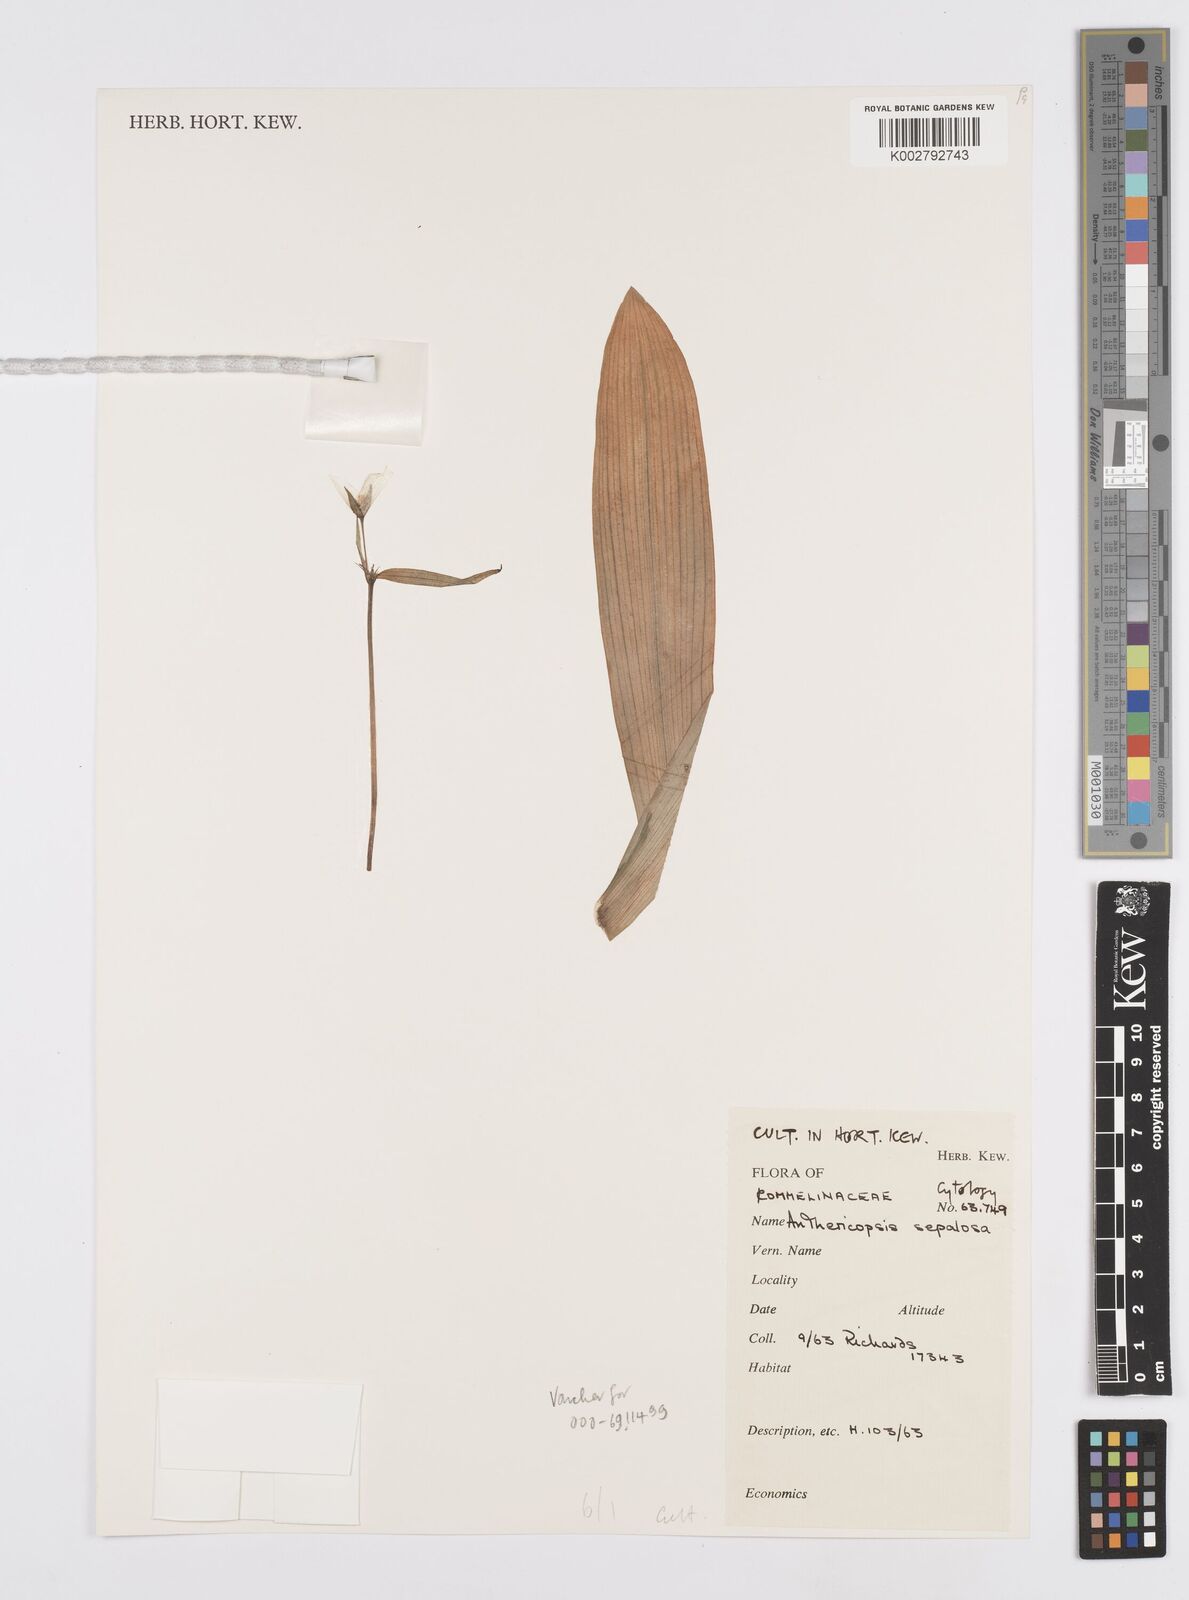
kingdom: Plantae
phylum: Tracheophyta
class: Liliopsida
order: Commelinales
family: Commelinaceae
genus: Anthericopsis
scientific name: Anthericopsis sepalosa
